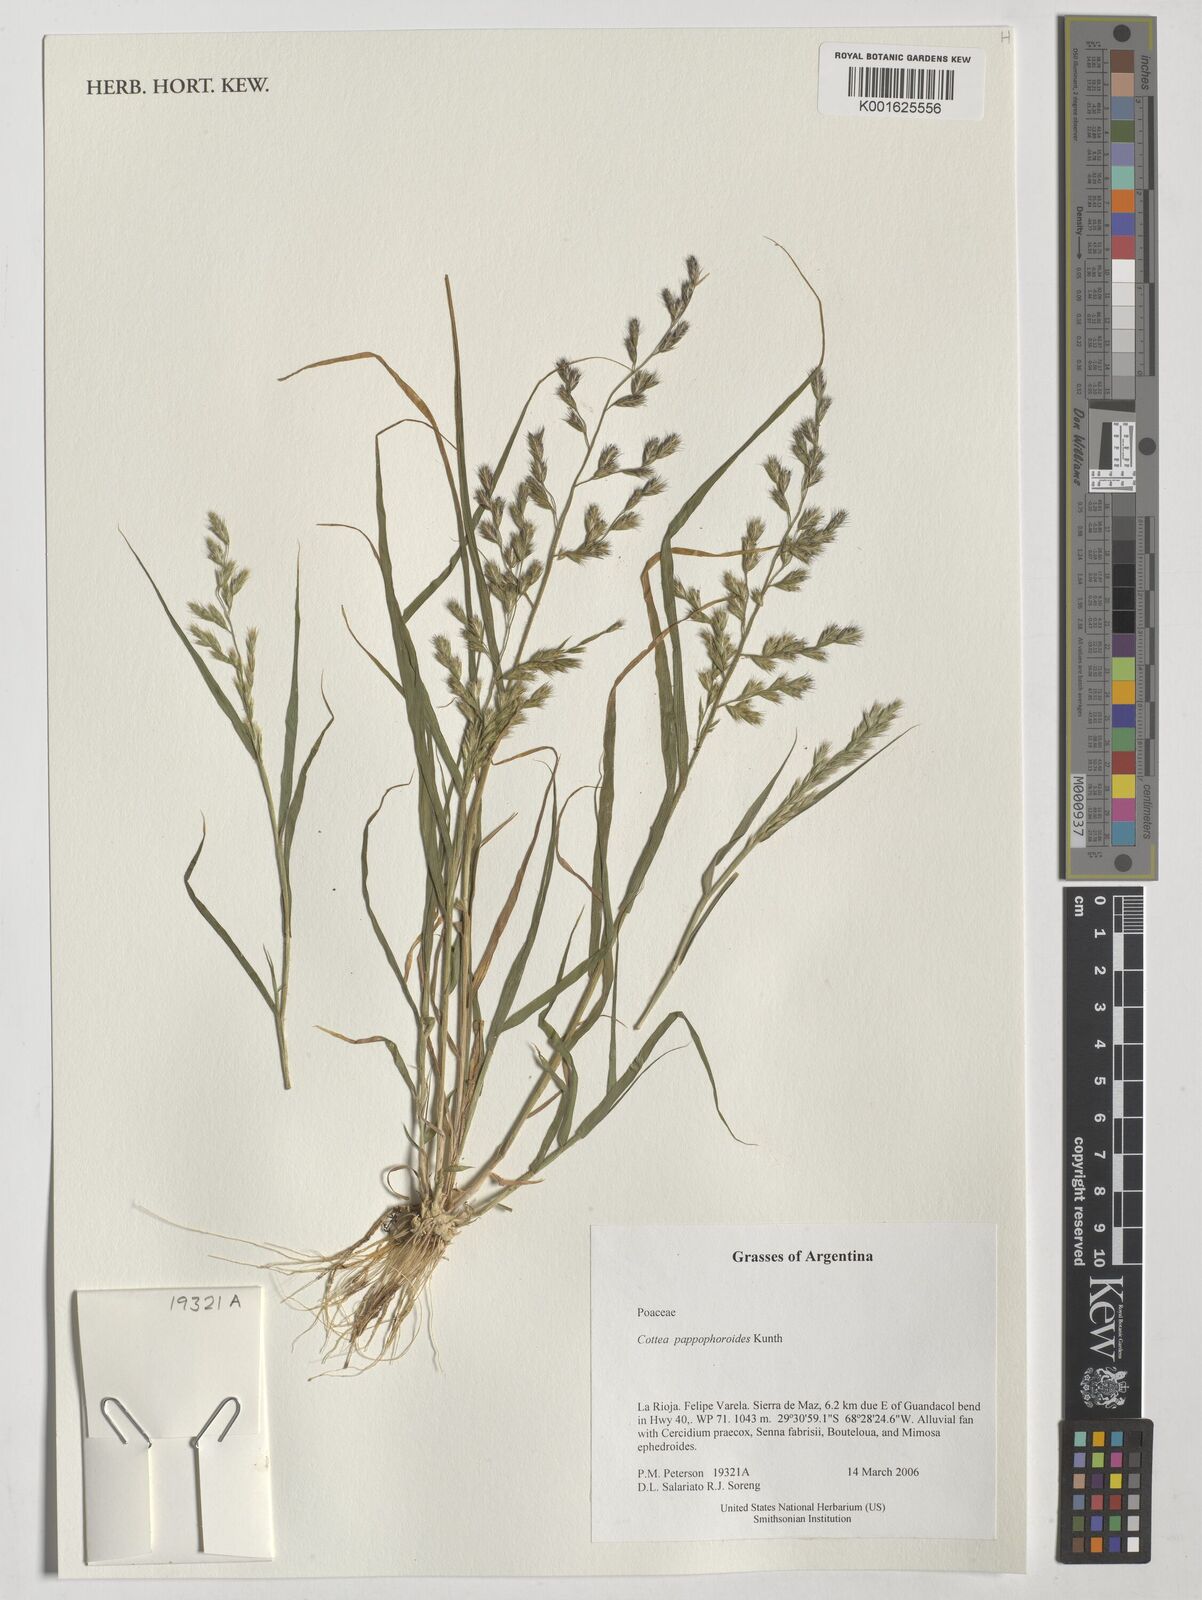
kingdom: Plantae
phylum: Tracheophyta
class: Liliopsida
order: Poales
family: Poaceae
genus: Cottea
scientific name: Cottea pappophoroides
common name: Cotta grass
